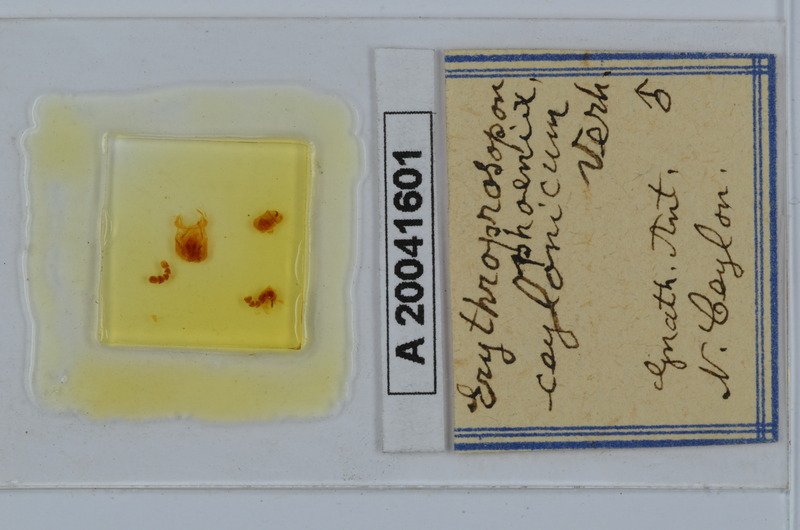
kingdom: Animalia
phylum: Arthropoda
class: Diplopoda
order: Spirobolida
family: Pachybolidae
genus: Erythroprosopon
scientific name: Erythroprosopon phoenix
